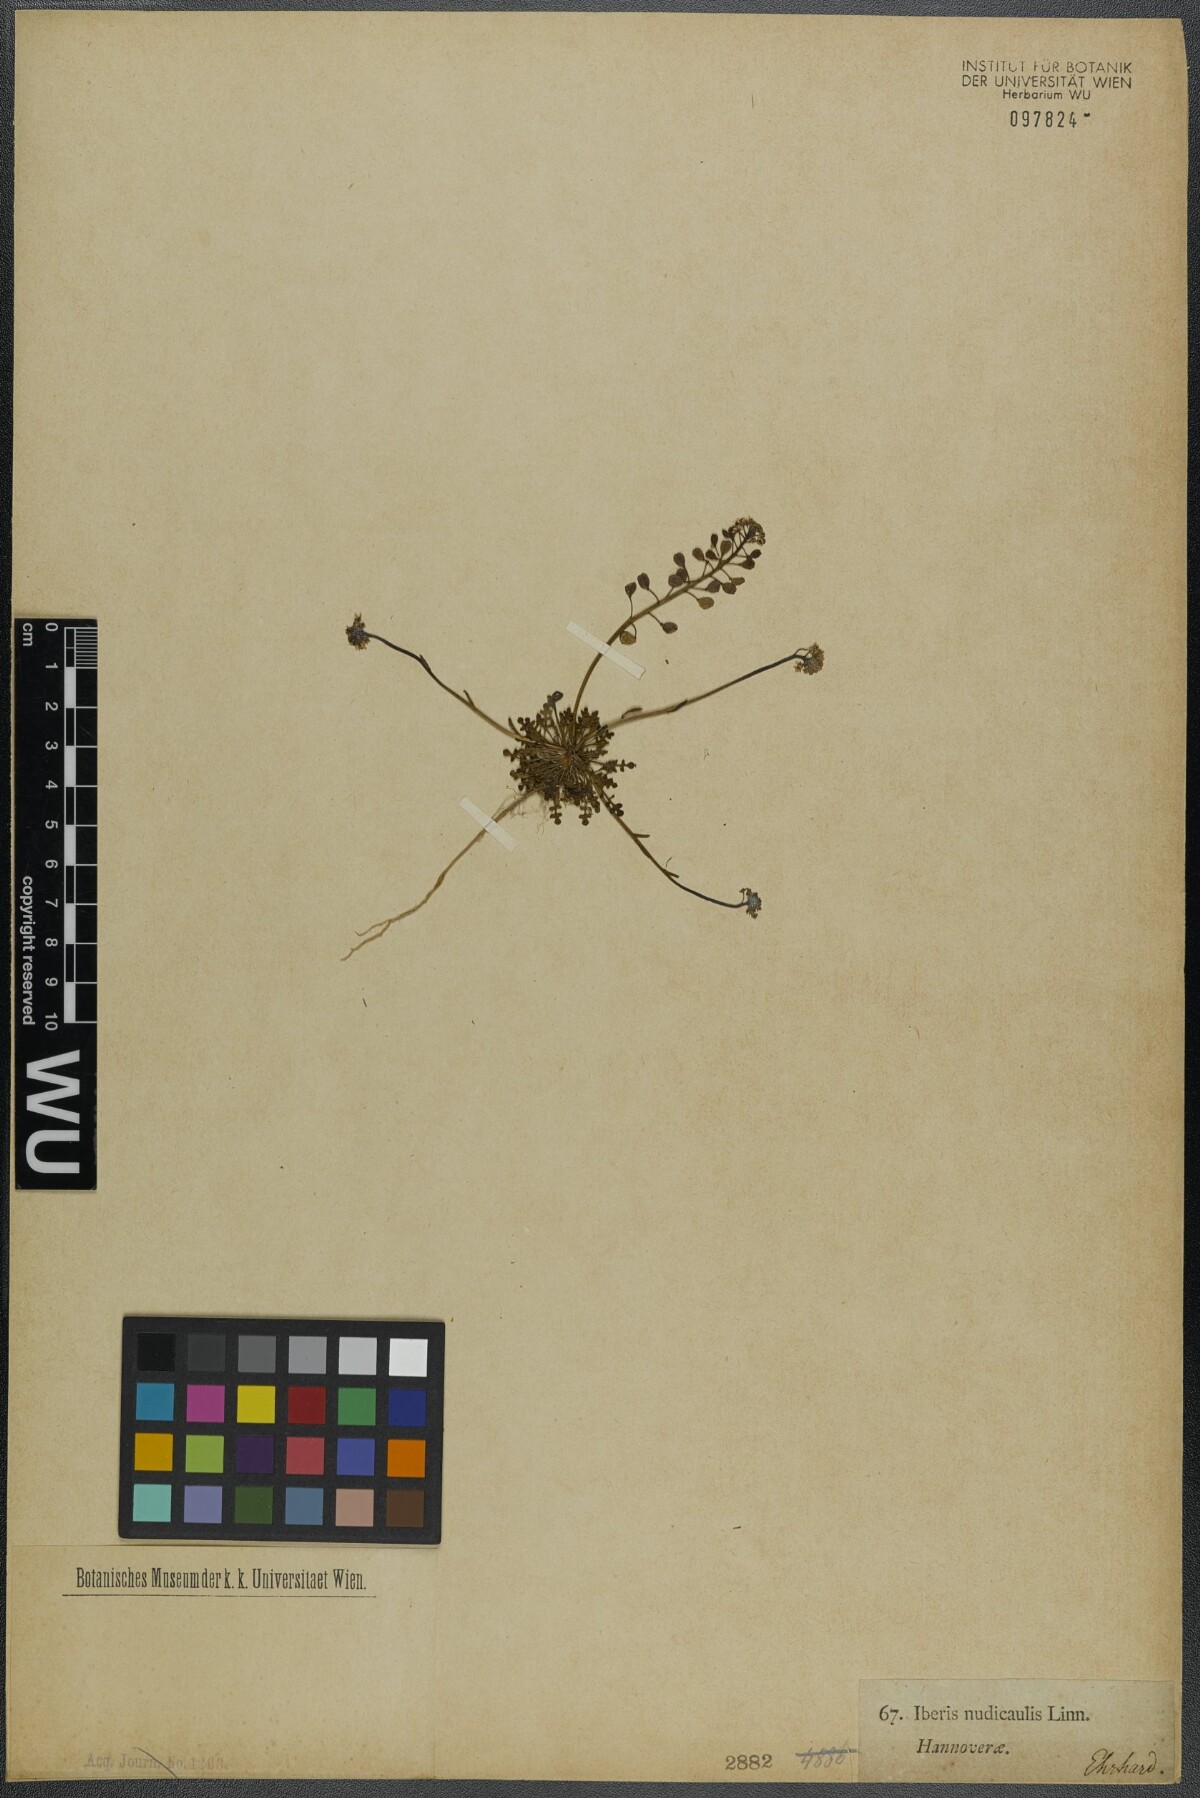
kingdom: Plantae
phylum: Tracheophyta
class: Magnoliopsida
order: Brassicales
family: Brassicaceae
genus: Teesdalia
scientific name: Teesdalia nudicaulis
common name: Shepherd's cress
